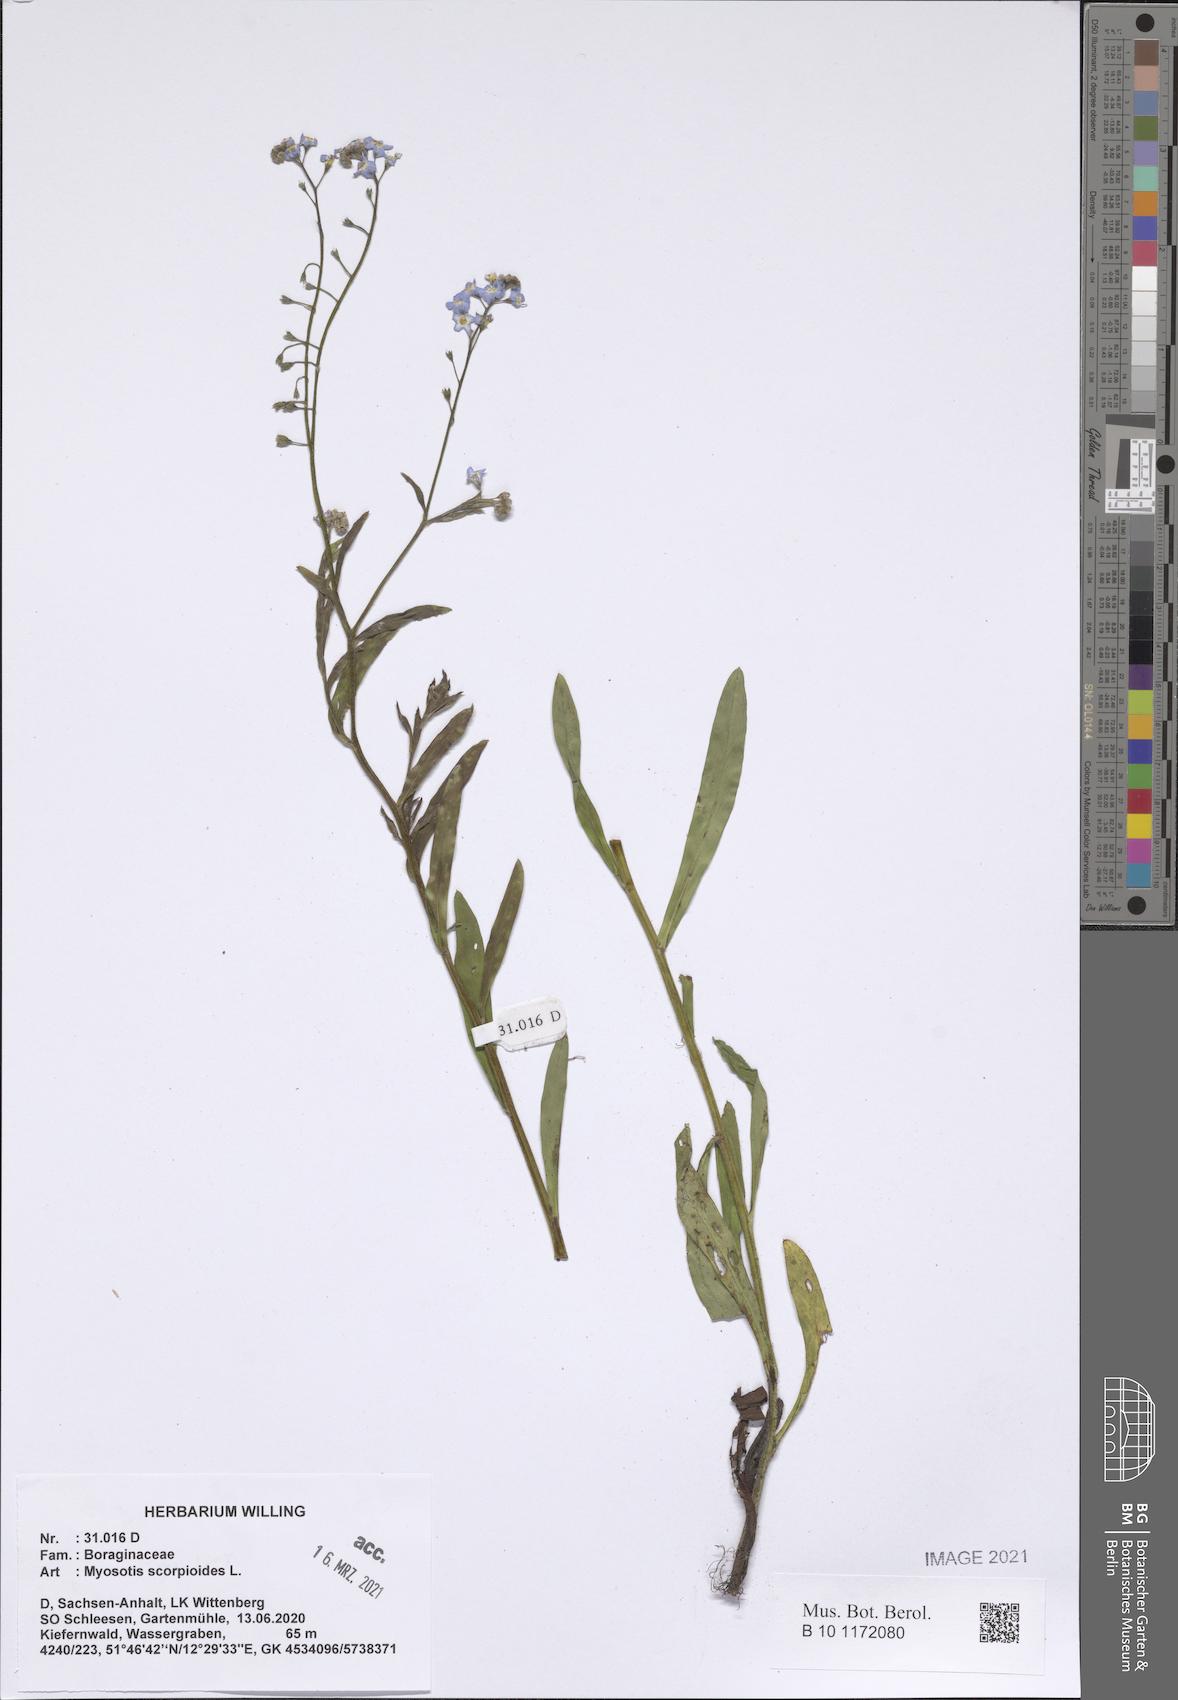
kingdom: Plantae
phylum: Tracheophyta
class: Magnoliopsida
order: Boraginales
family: Boraginaceae
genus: Myosotis
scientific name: Myosotis scorpioides
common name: Water forget-me-not
